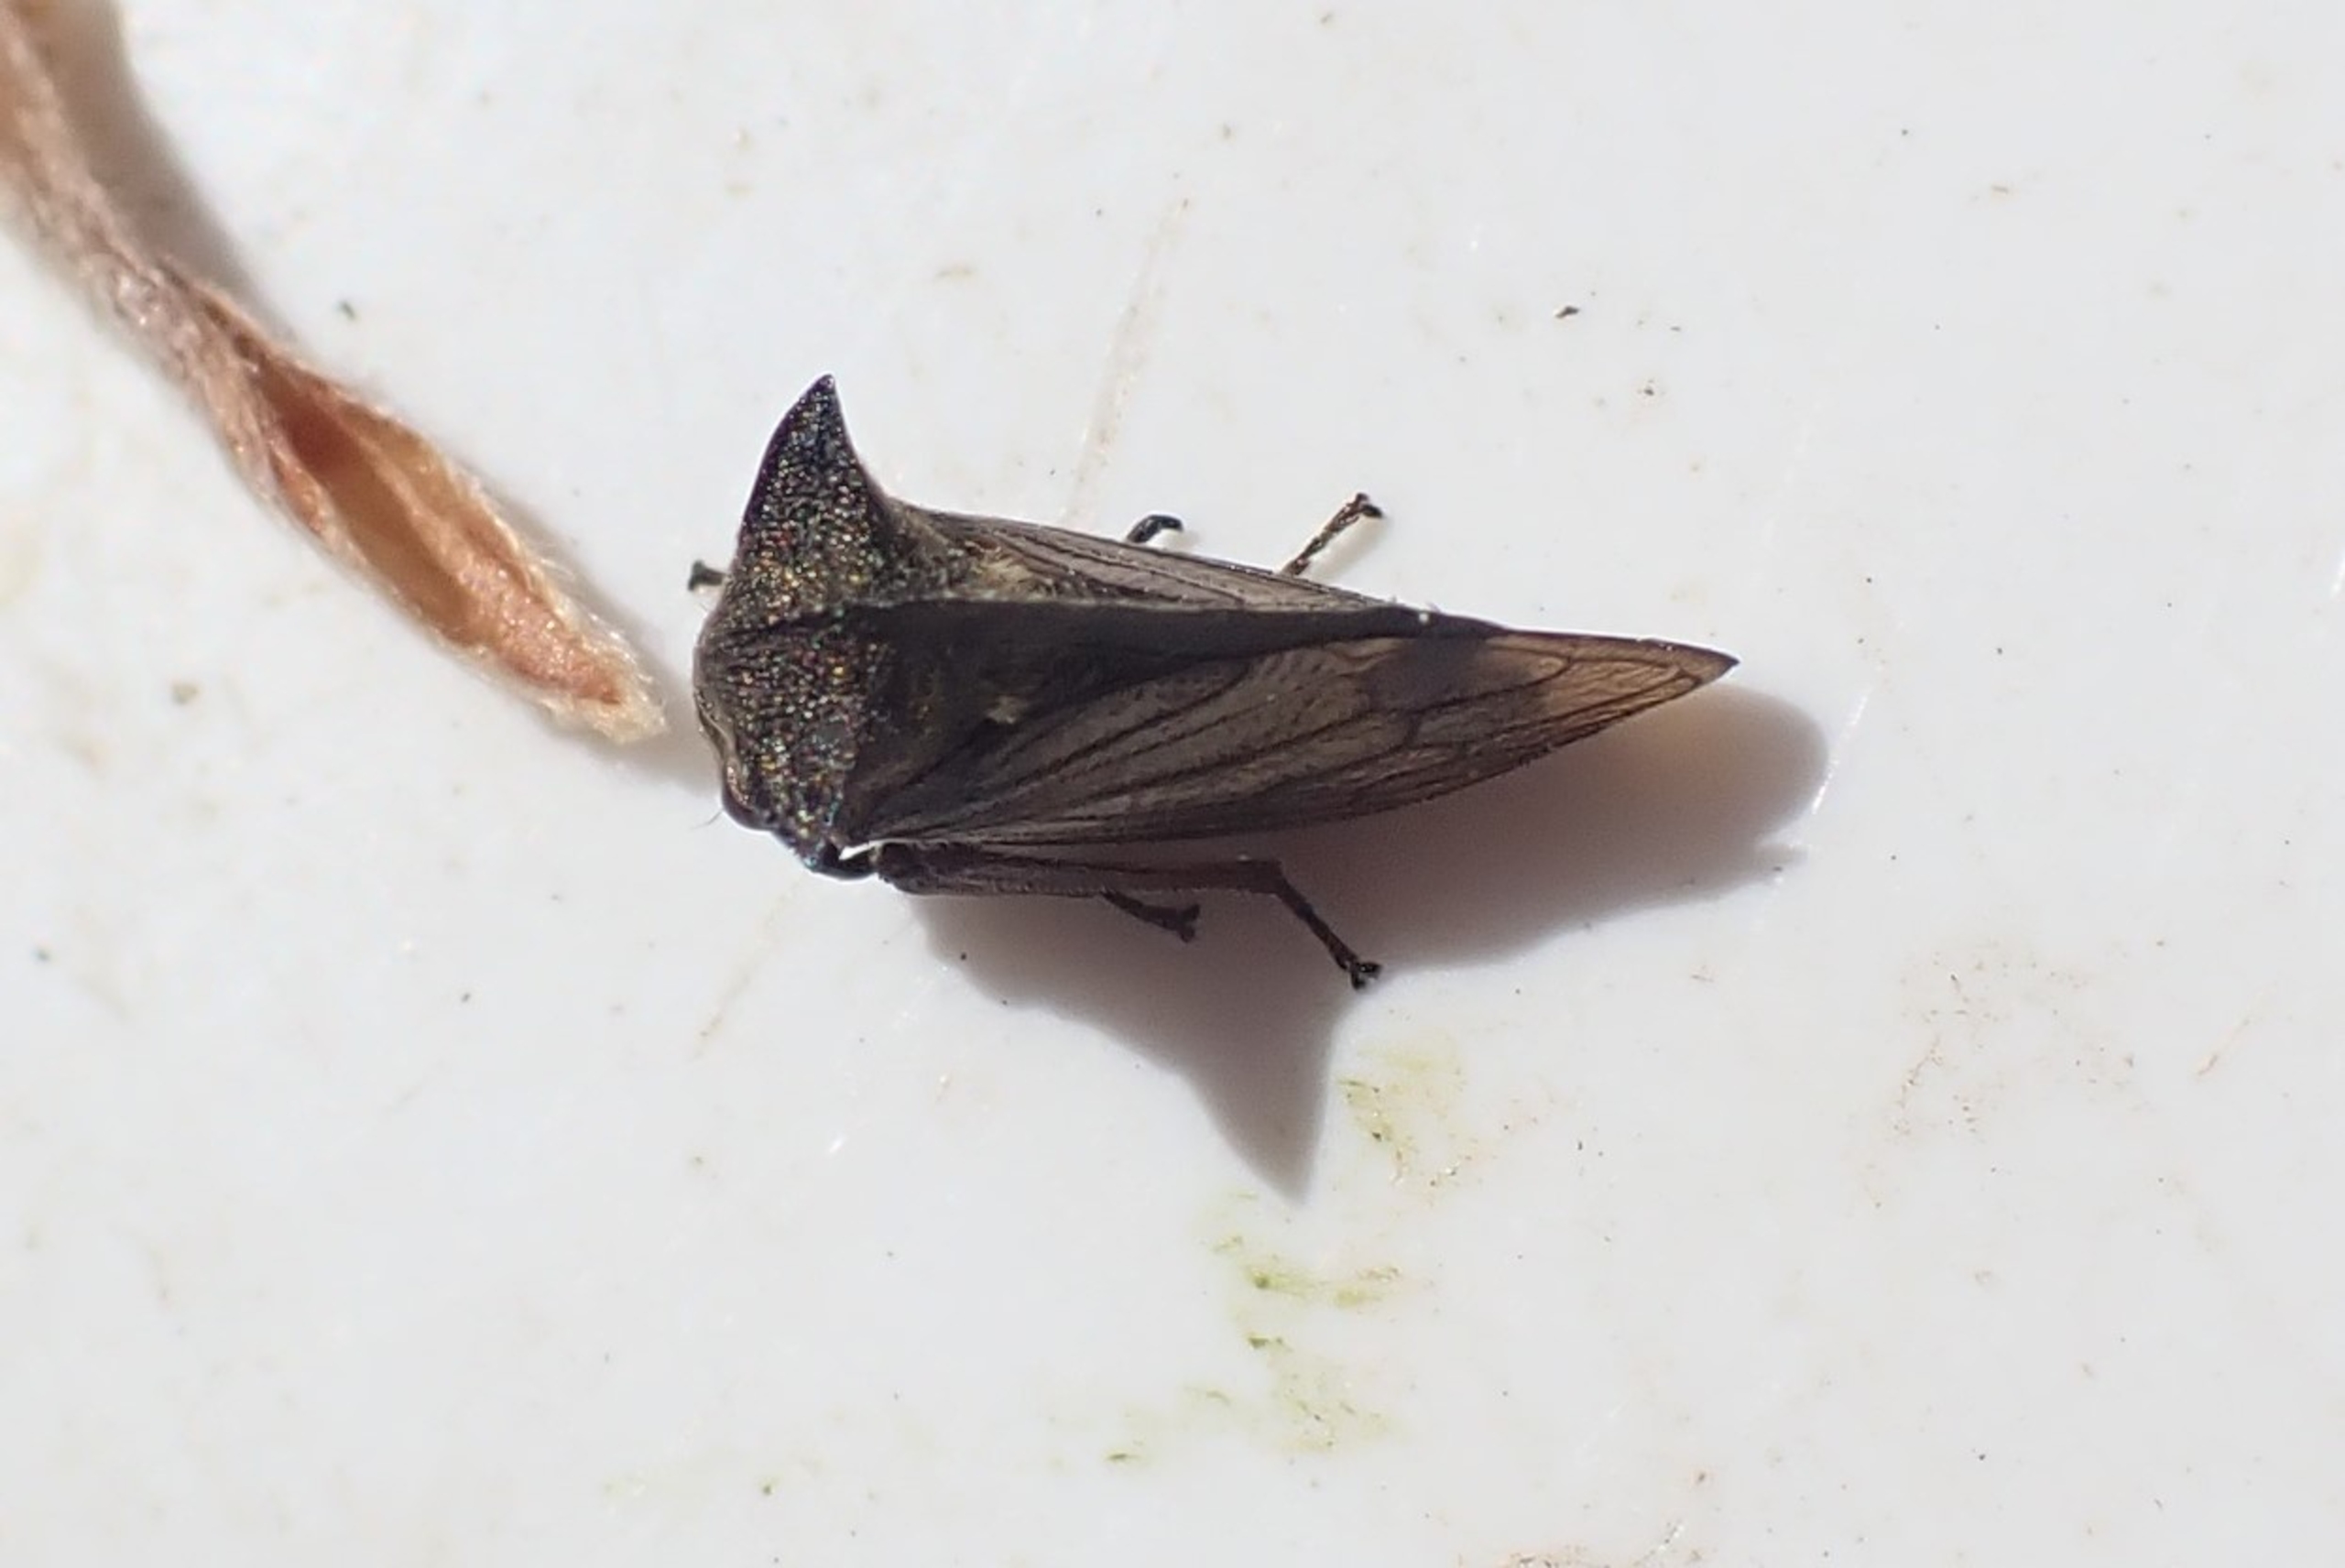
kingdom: Animalia
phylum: Arthropoda
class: Insecta
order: Hemiptera
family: Membracidae
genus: Centrotus
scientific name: Centrotus cornuta
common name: Horncikade
